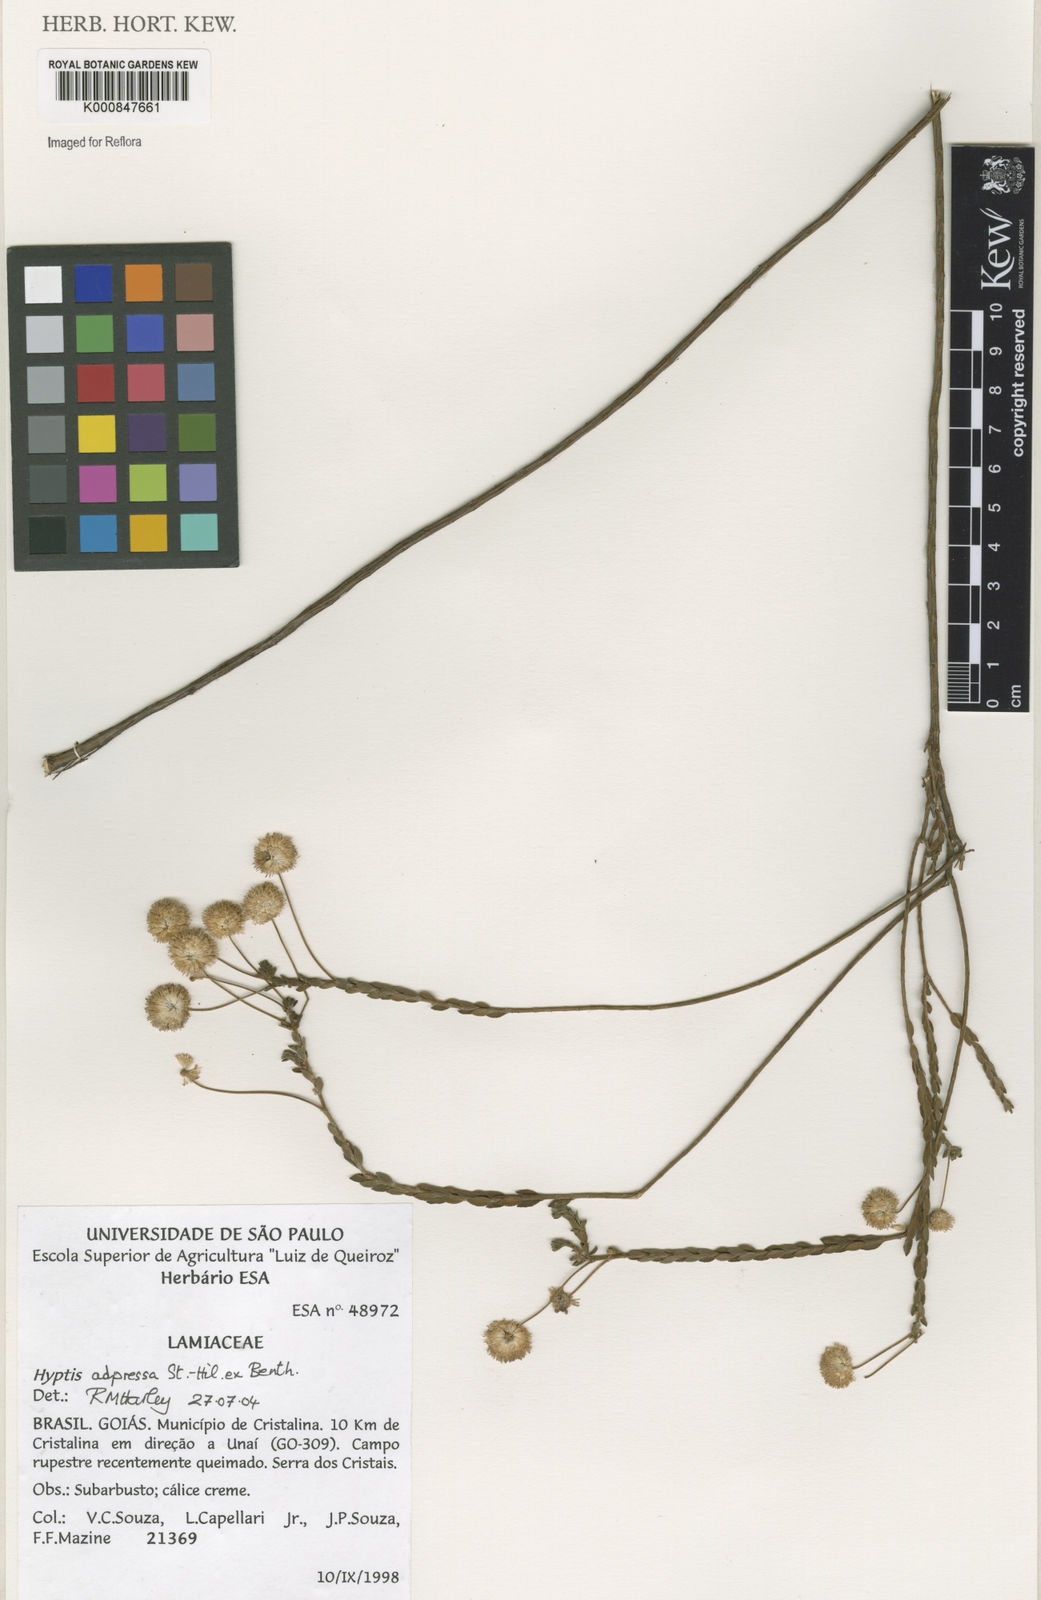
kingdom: Plantae
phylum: Tracheophyta
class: Magnoliopsida
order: Lamiales
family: Lamiaceae
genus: Cyanocephalus
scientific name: Cyanocephalus adpressus
